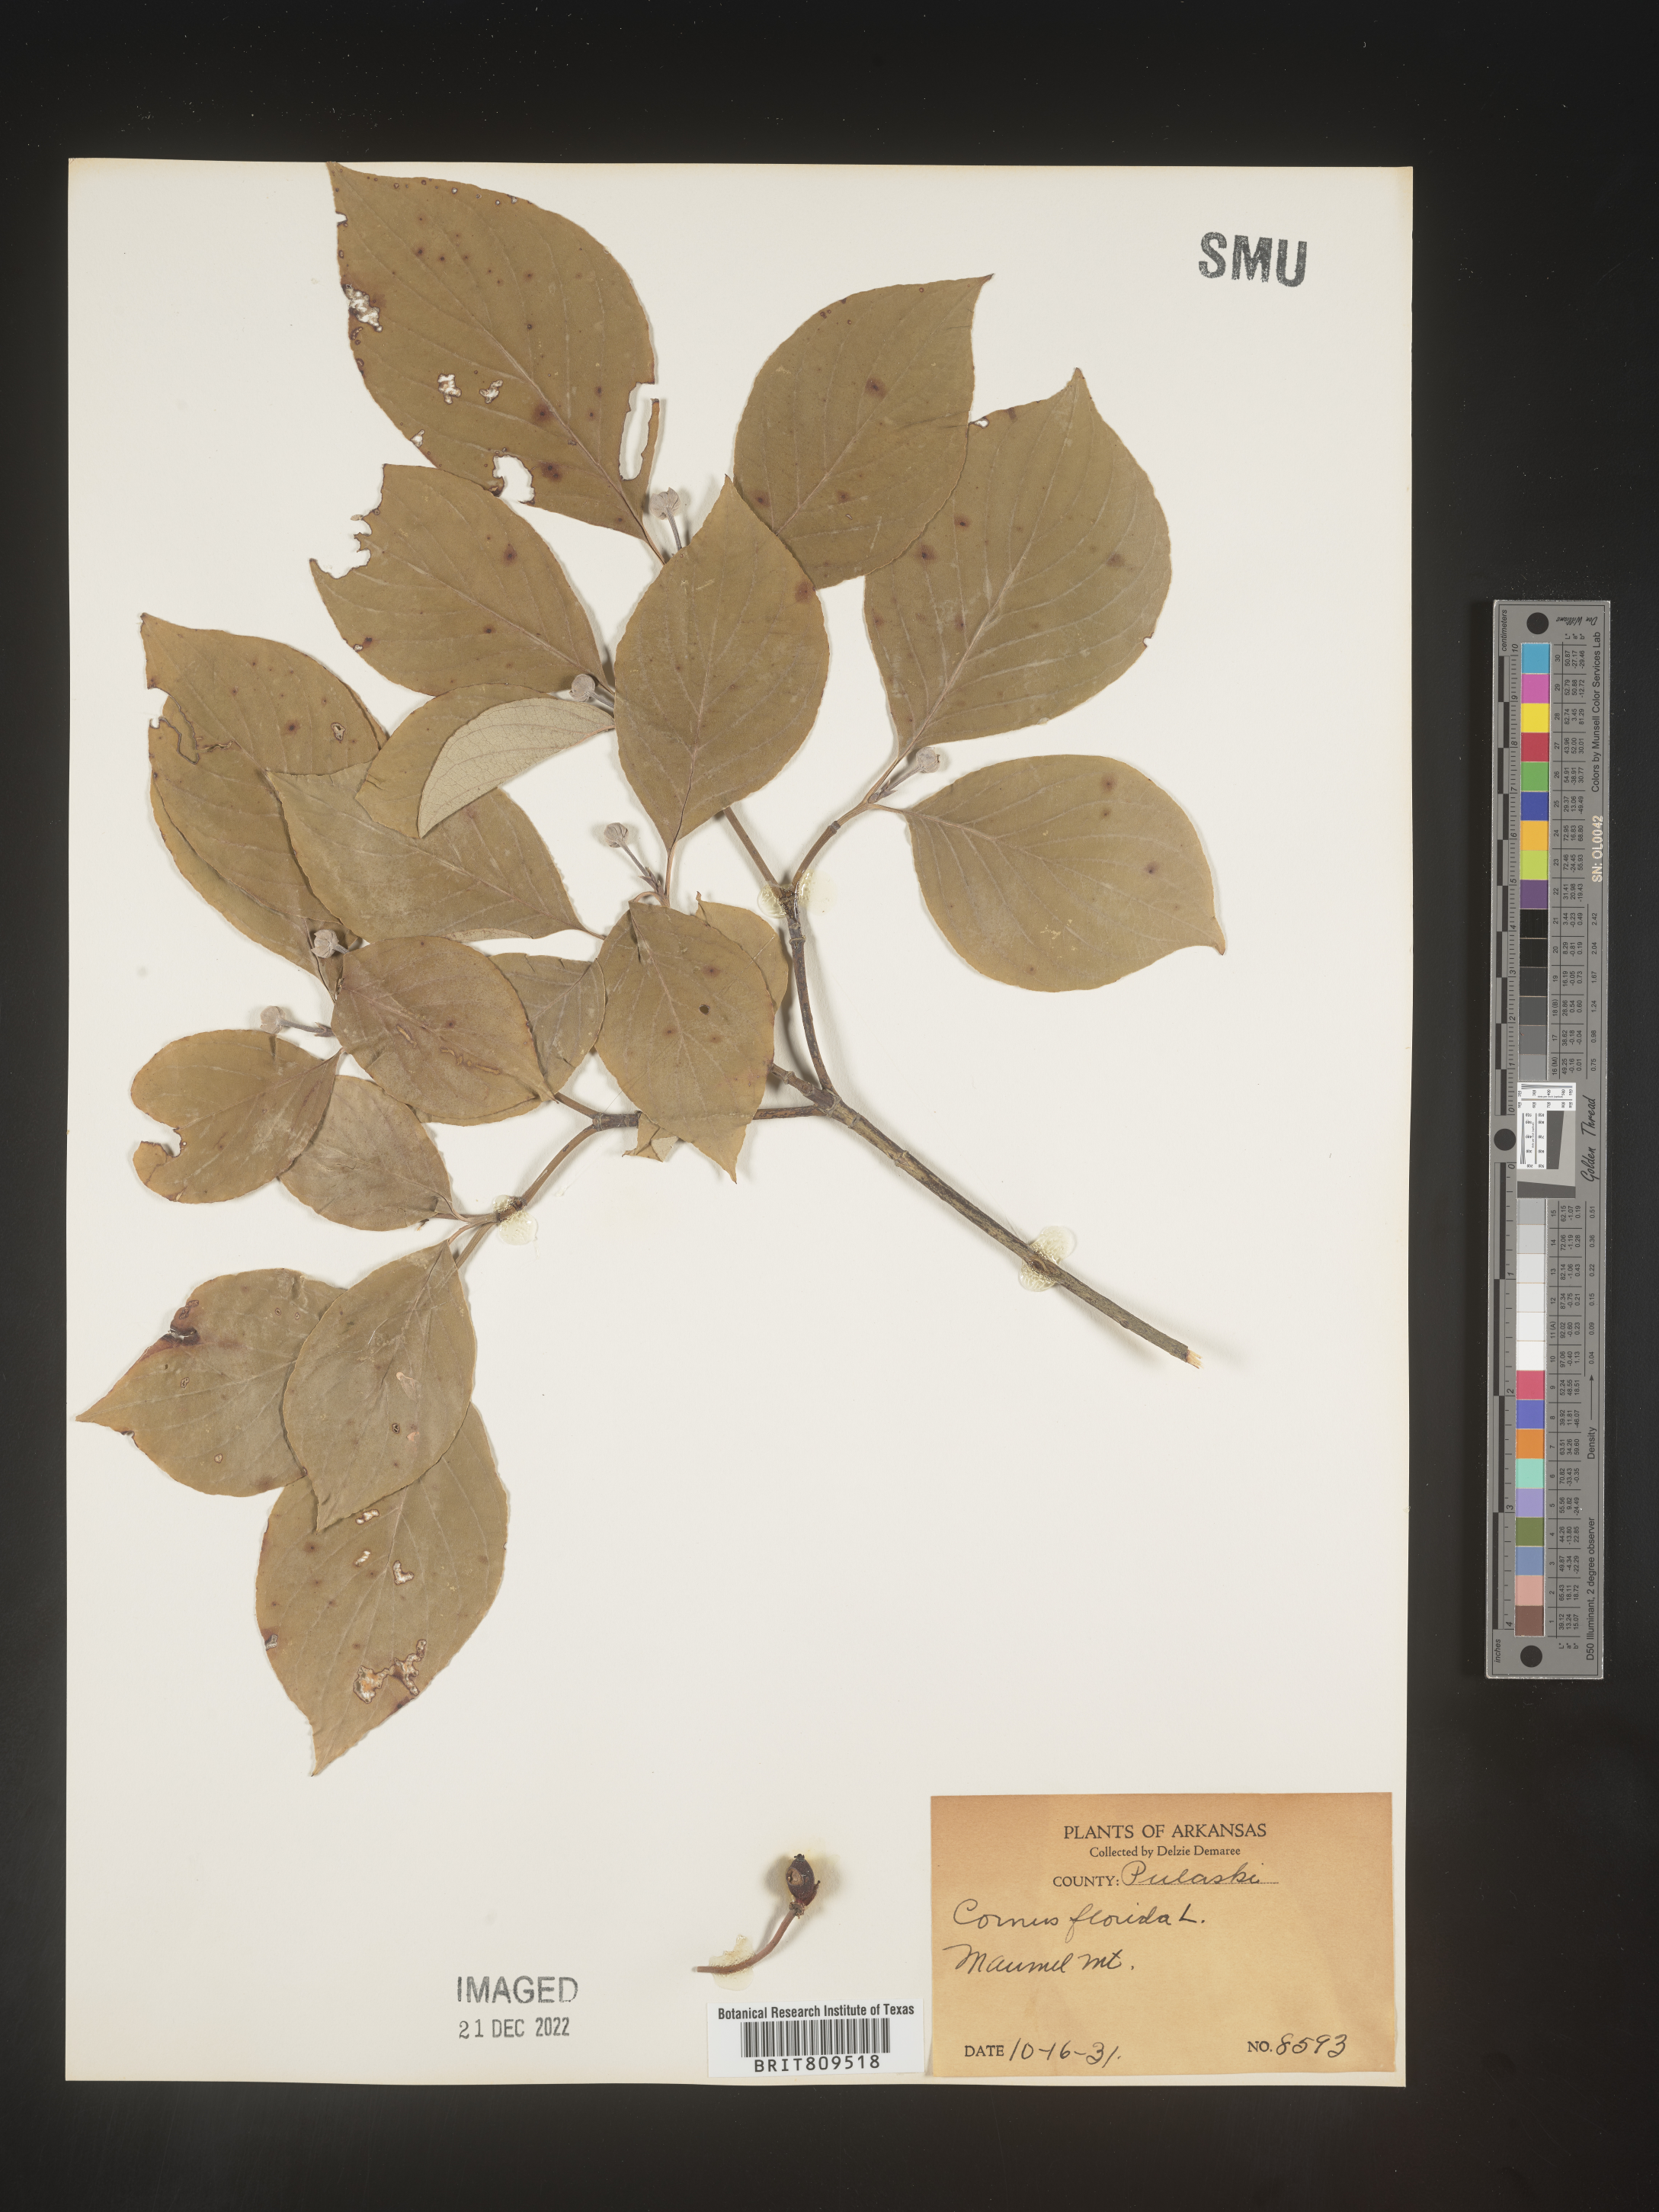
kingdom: Plantae
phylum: Tracheophyta
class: Magnoliopsida
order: Cornales
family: Cornaceae
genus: Cornus
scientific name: Cornus florida
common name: Flowering dogwood
